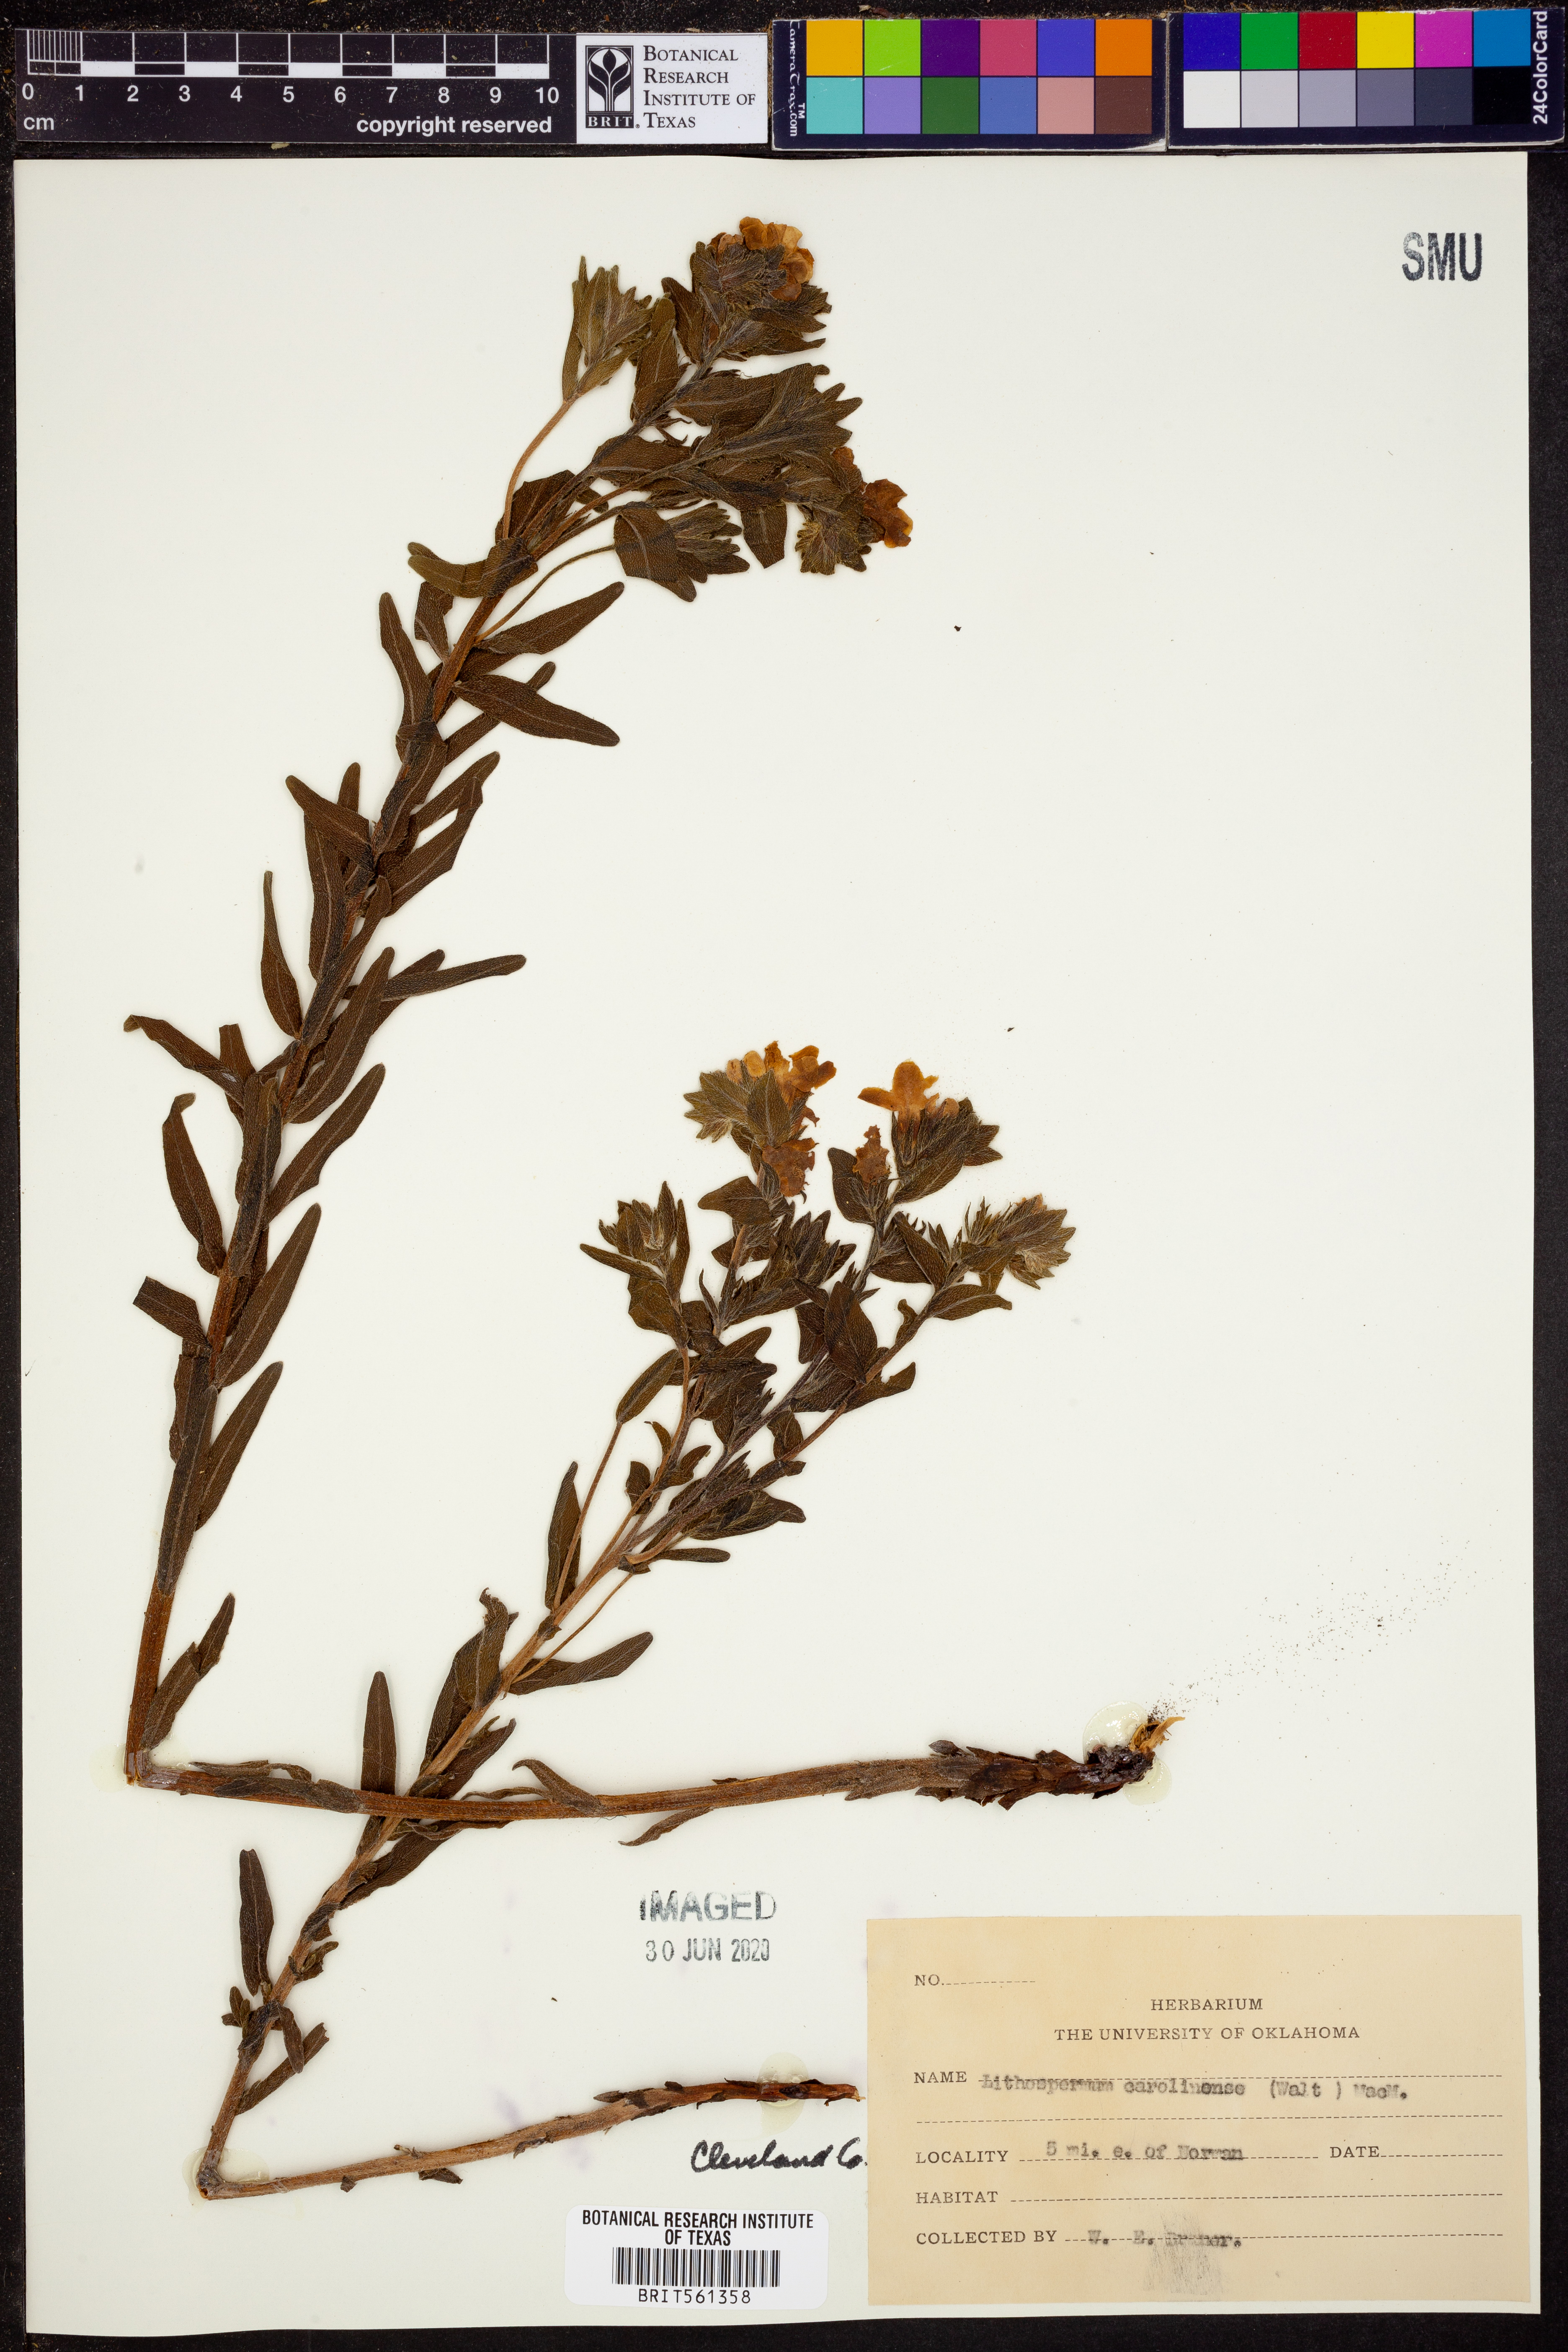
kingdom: Plantae
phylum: Tracheophyta
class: Magnoliopsida
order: Boraginales
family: Boraginaceae
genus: Lithospermum
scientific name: Lithospermum caroliniense
